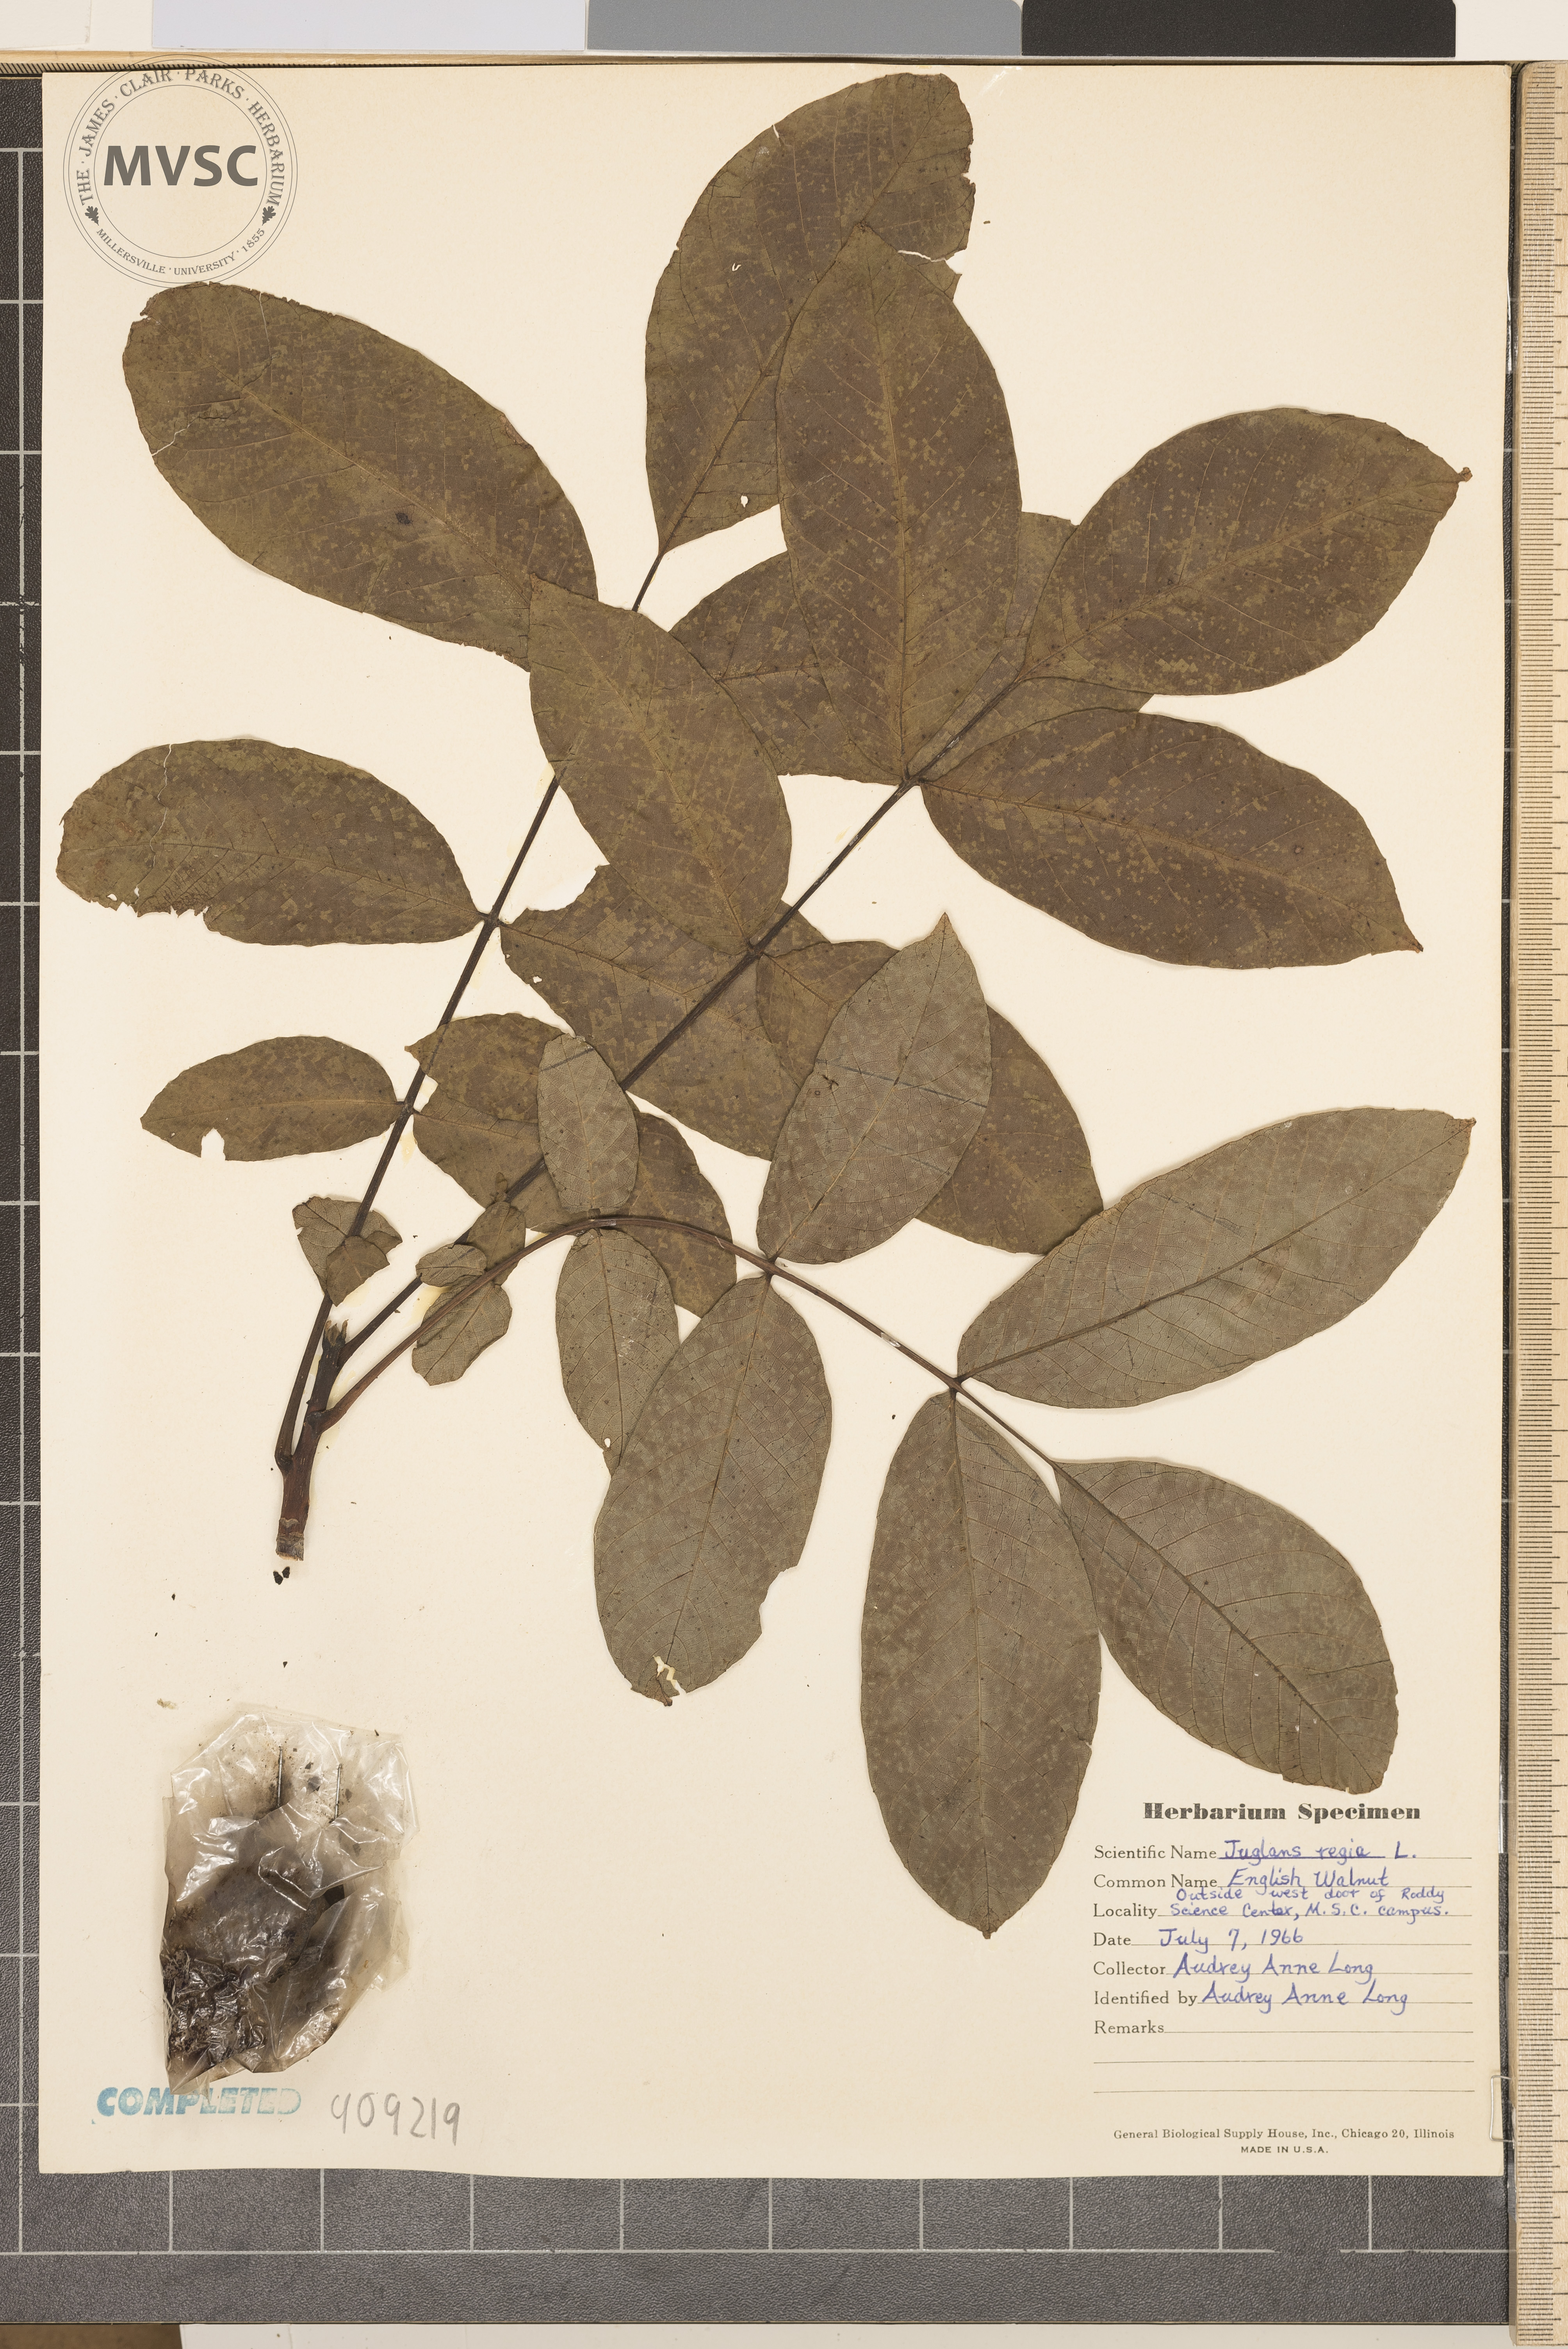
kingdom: Plantae
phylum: Tracheophyta
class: Magnoliopsida
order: Fagales
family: Juglandaceae
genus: Juglans
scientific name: Juglans regia
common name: Walnut
